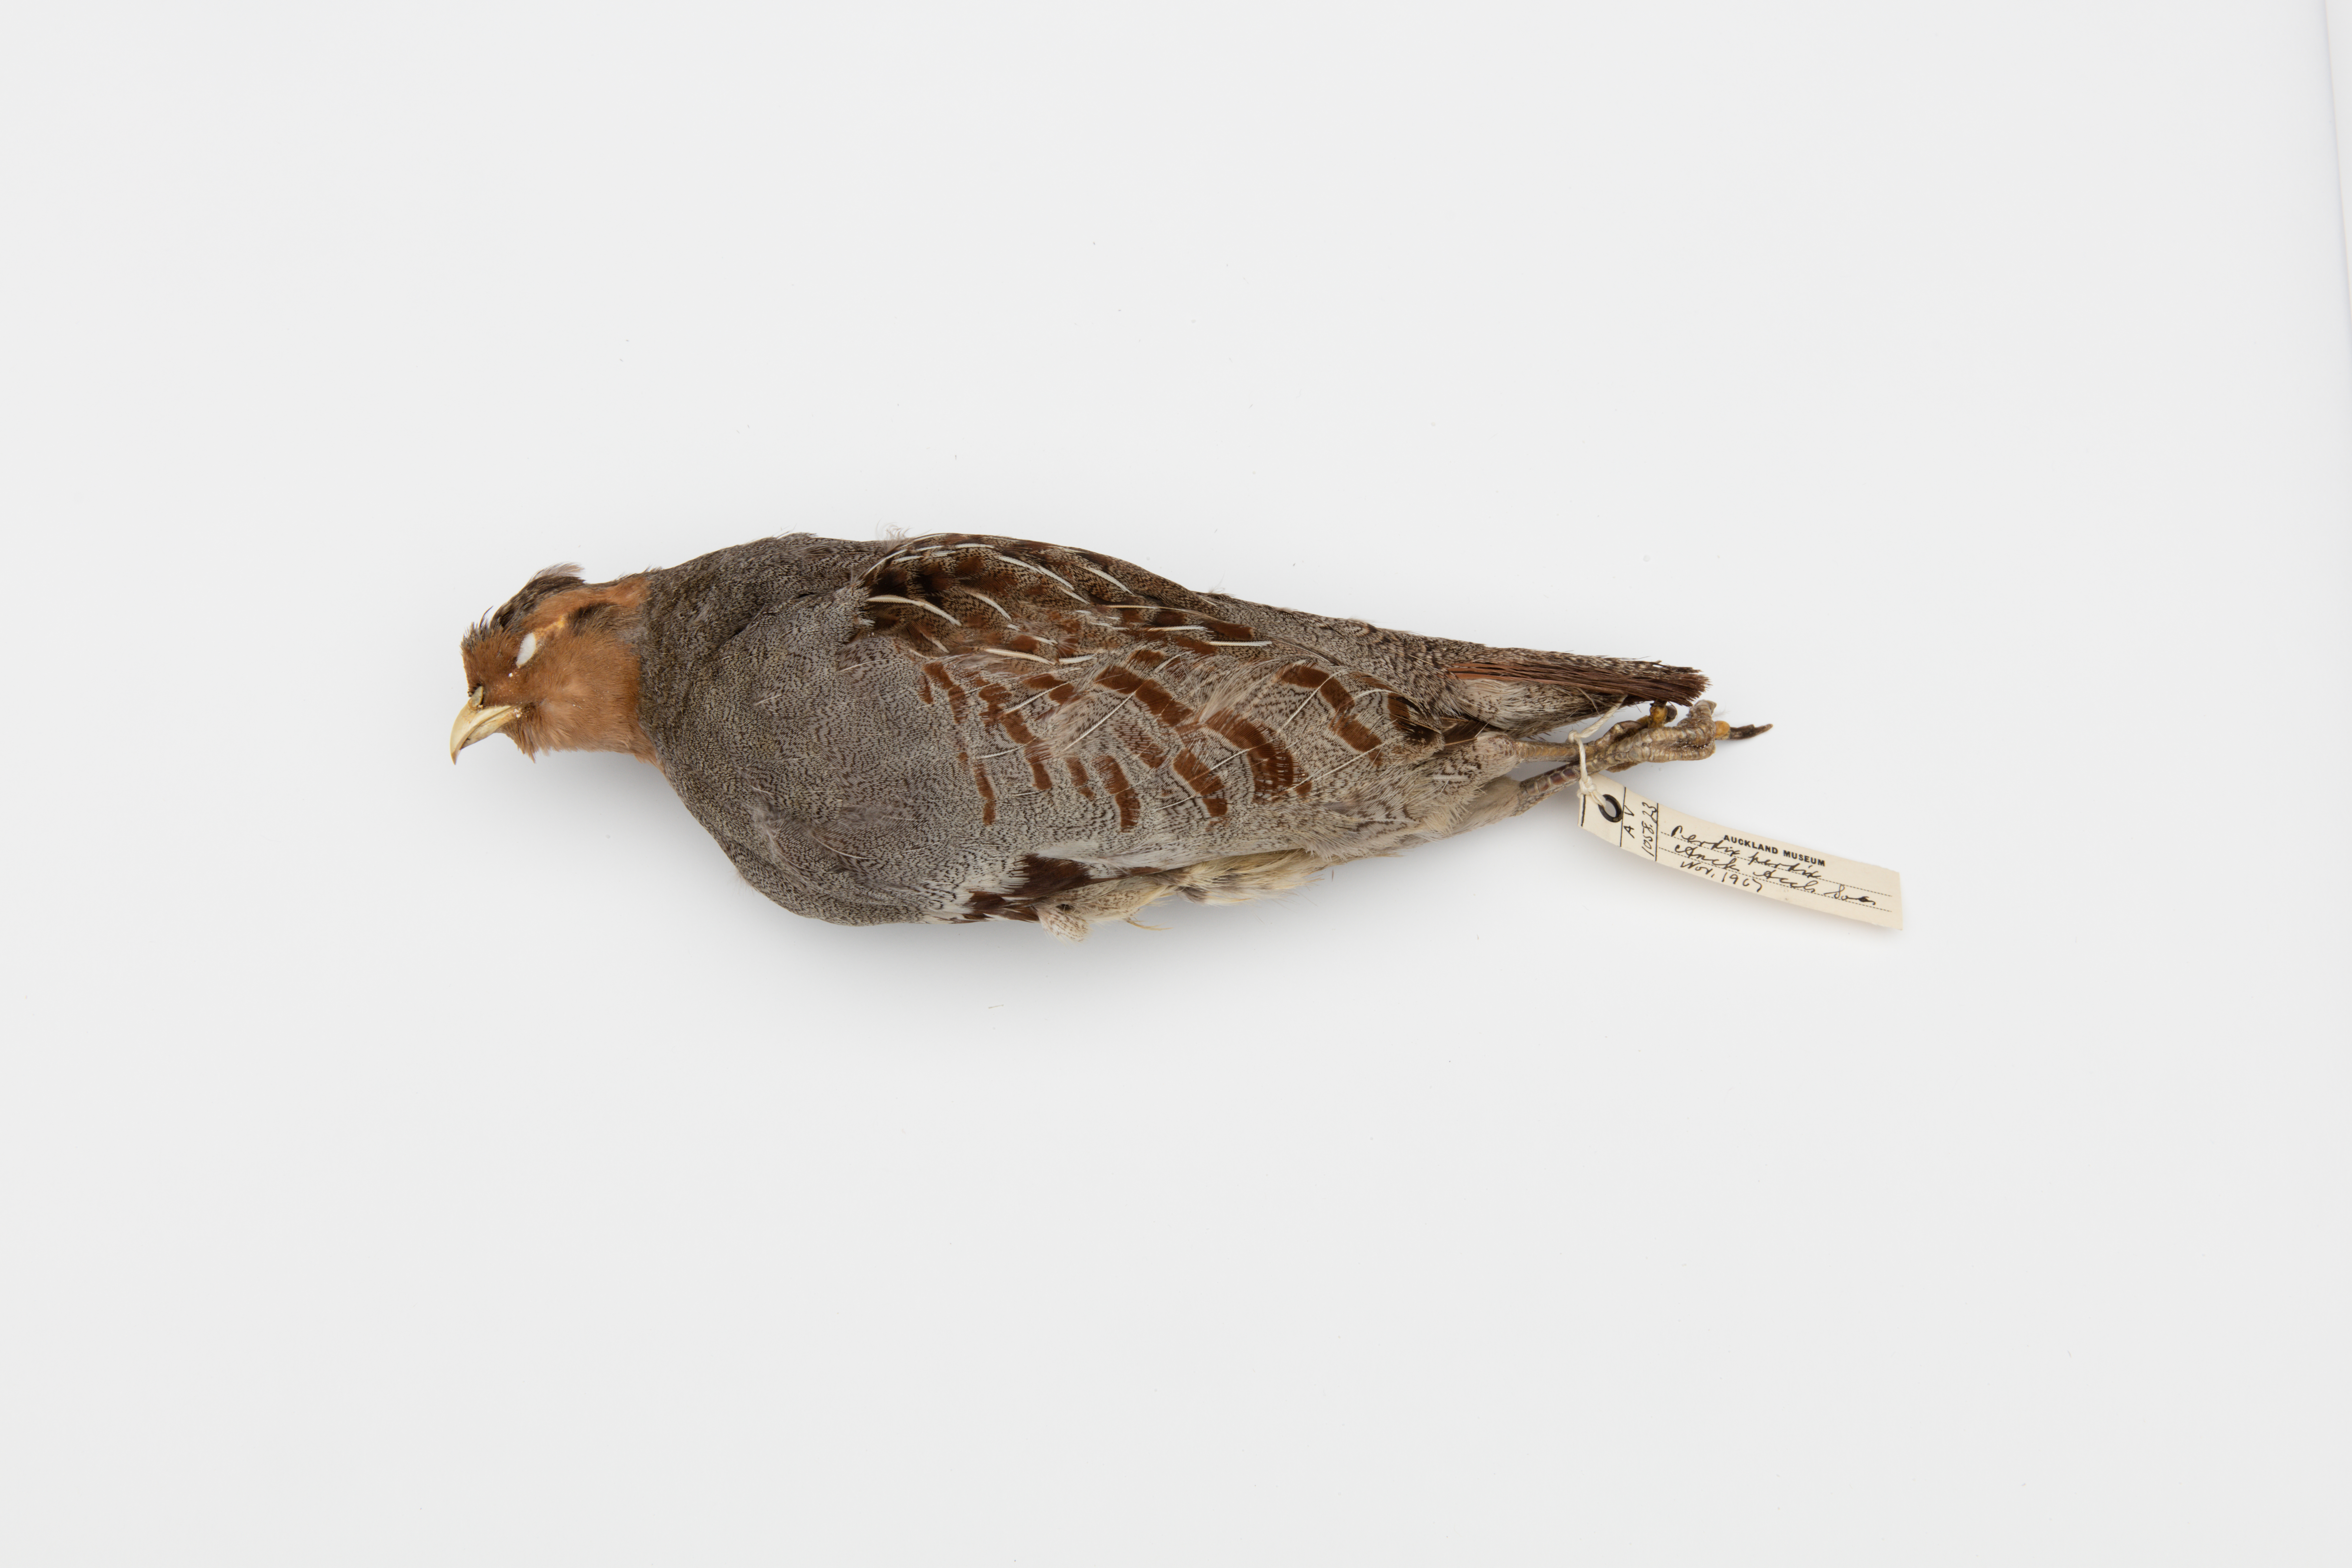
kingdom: Animalia
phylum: Chordata
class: Aves
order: Galliformes
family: Phasianidae
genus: Perdix
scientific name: Perdix perdix
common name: Grey partridge
